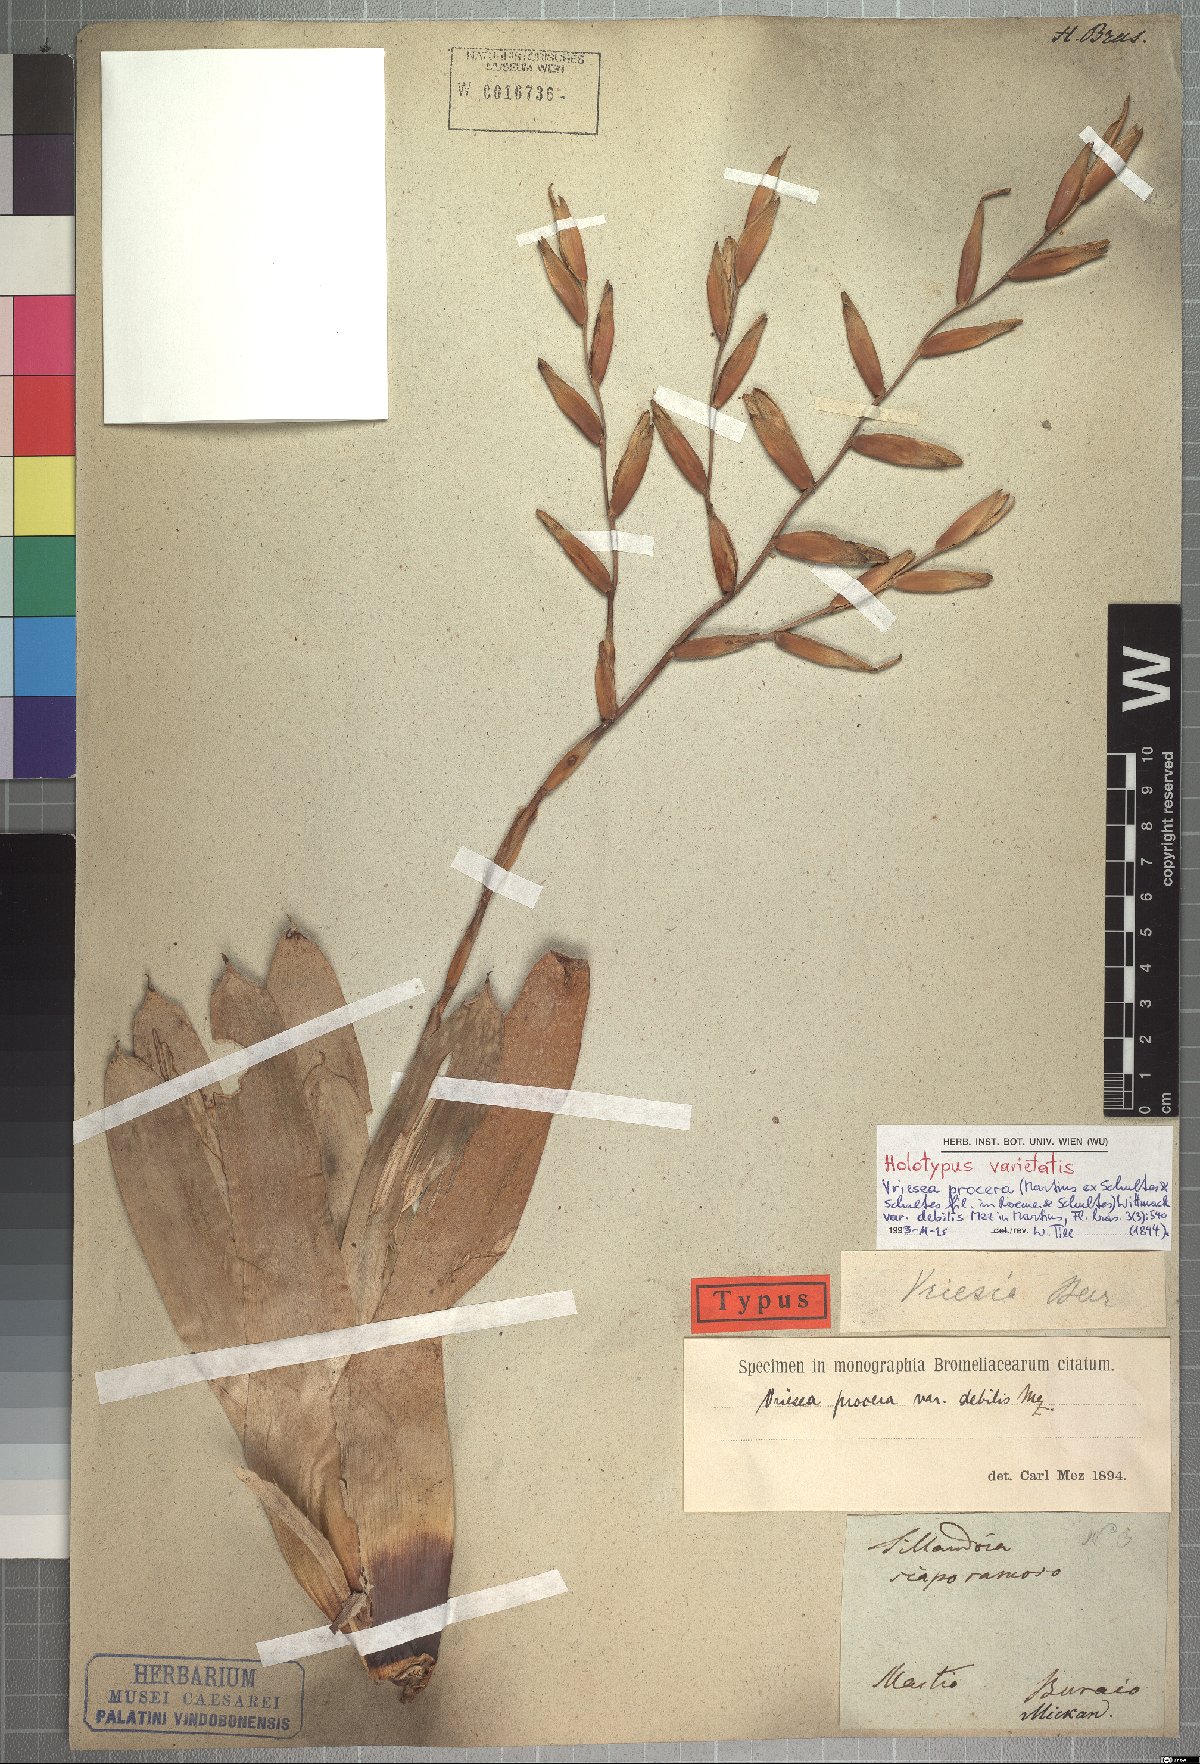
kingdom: Plantae
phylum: Tracheophyta
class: Liliopsida
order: Poales
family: Bromeliaceae
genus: Vriesea
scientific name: Vriesea procera
